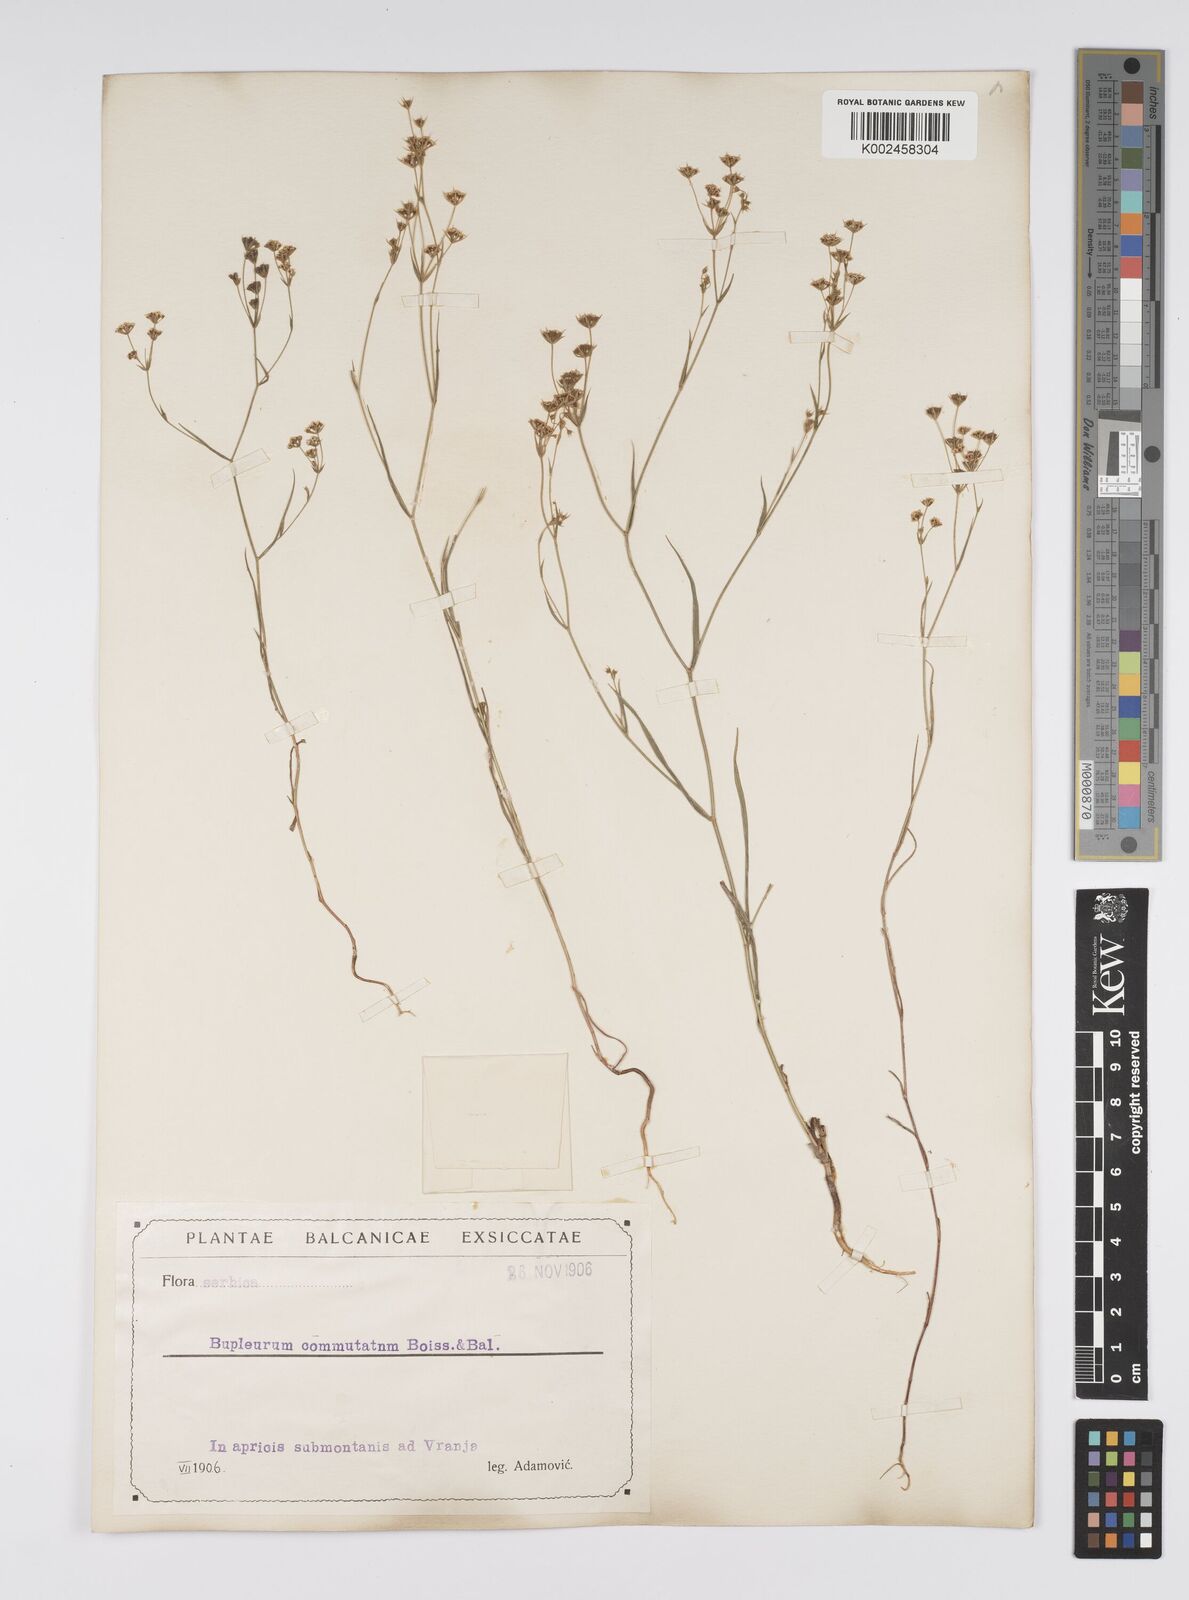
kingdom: Plantae
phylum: Tracheophyta
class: Magnoliopsida
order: Apiales
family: Apiaceae
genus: Bupleurum
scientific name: Bupleurum commutatum
